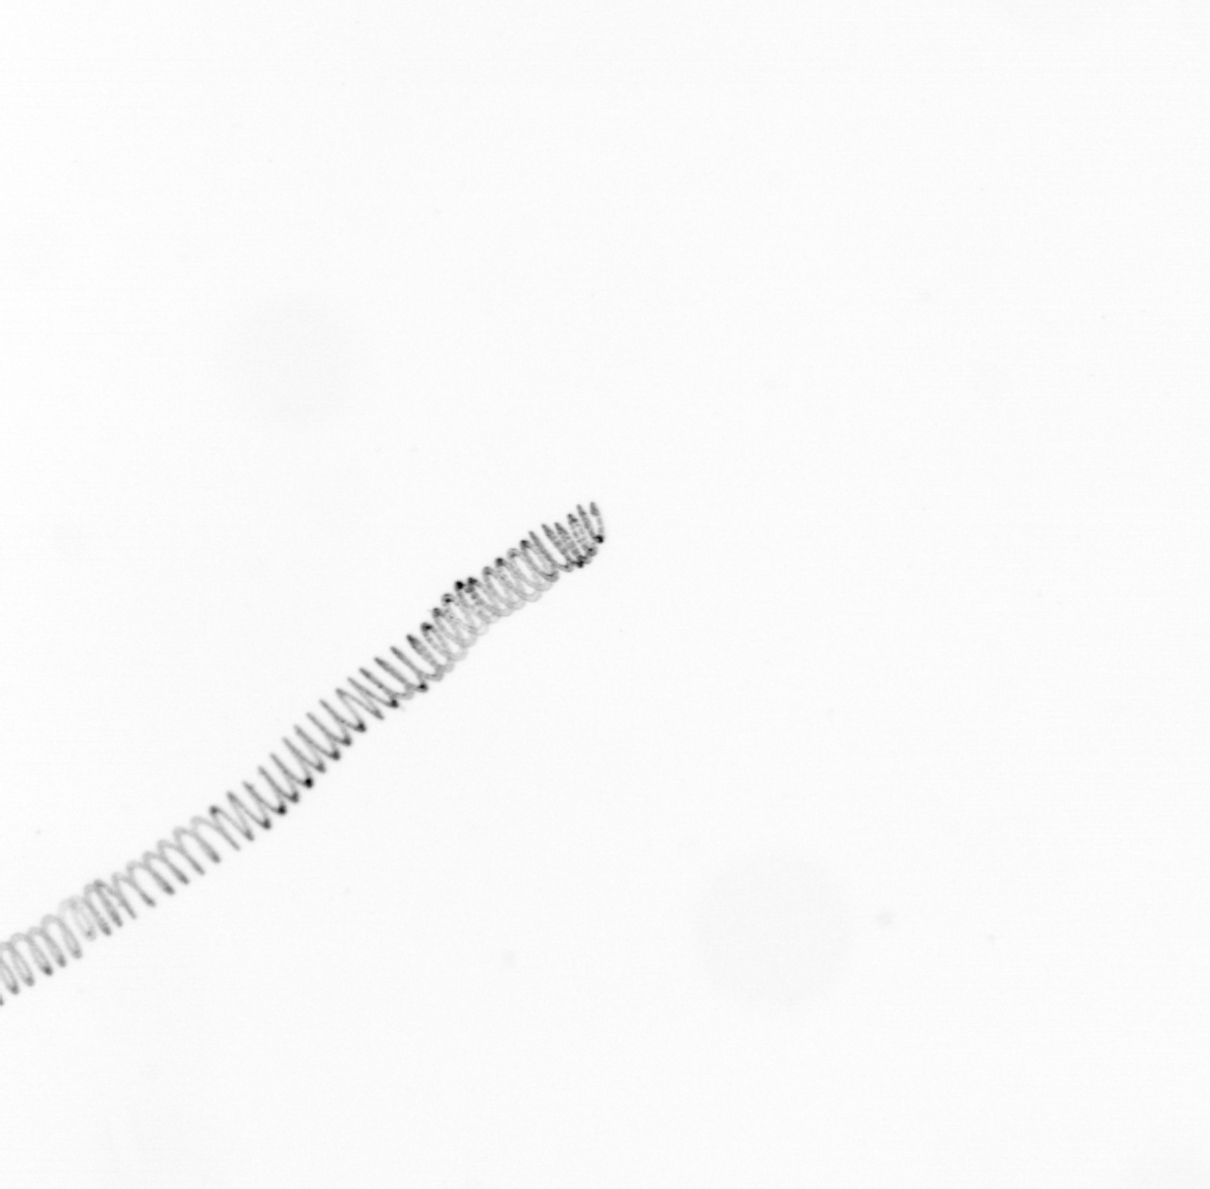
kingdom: Chromista
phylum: Ochrophyta
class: Bacillariophyceae
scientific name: Bacillariophyceae
